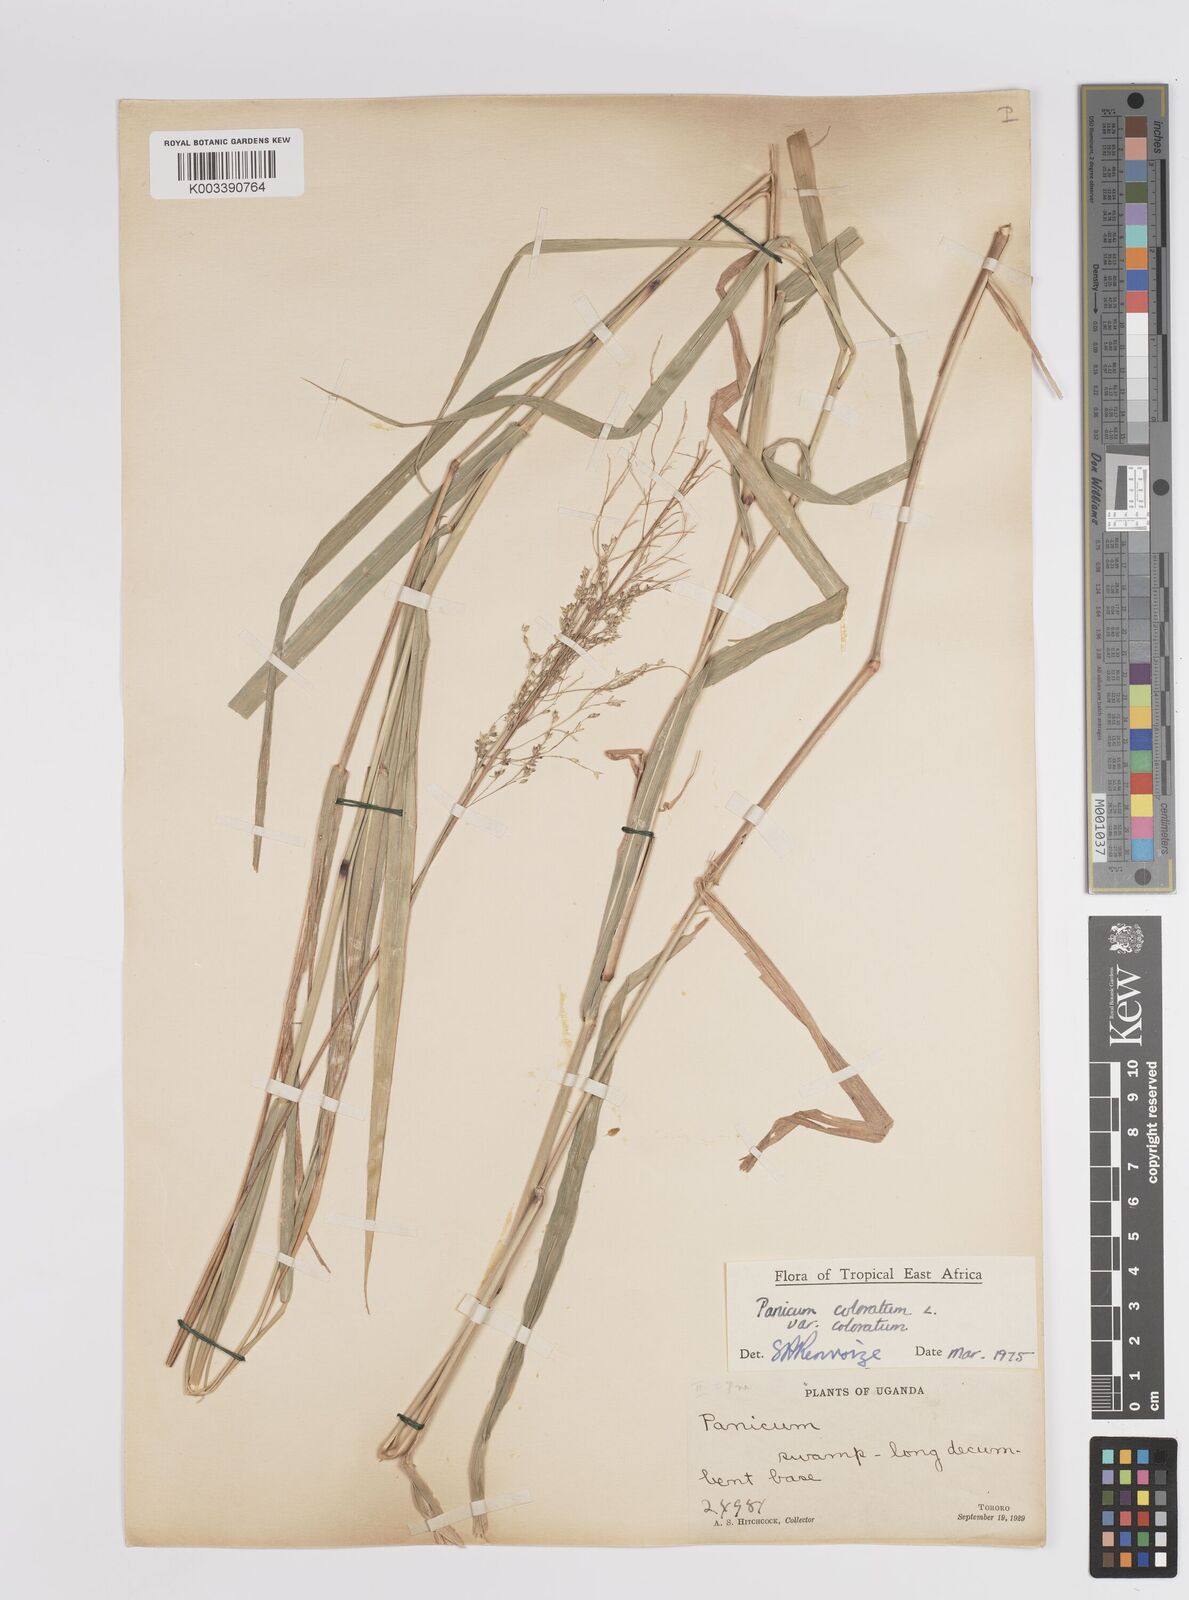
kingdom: Plantae
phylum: Tracheophyta
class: Liliopsida
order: Poales
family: Poaceae
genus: Panicum
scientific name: Panicum coloratum
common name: Kleingrass
